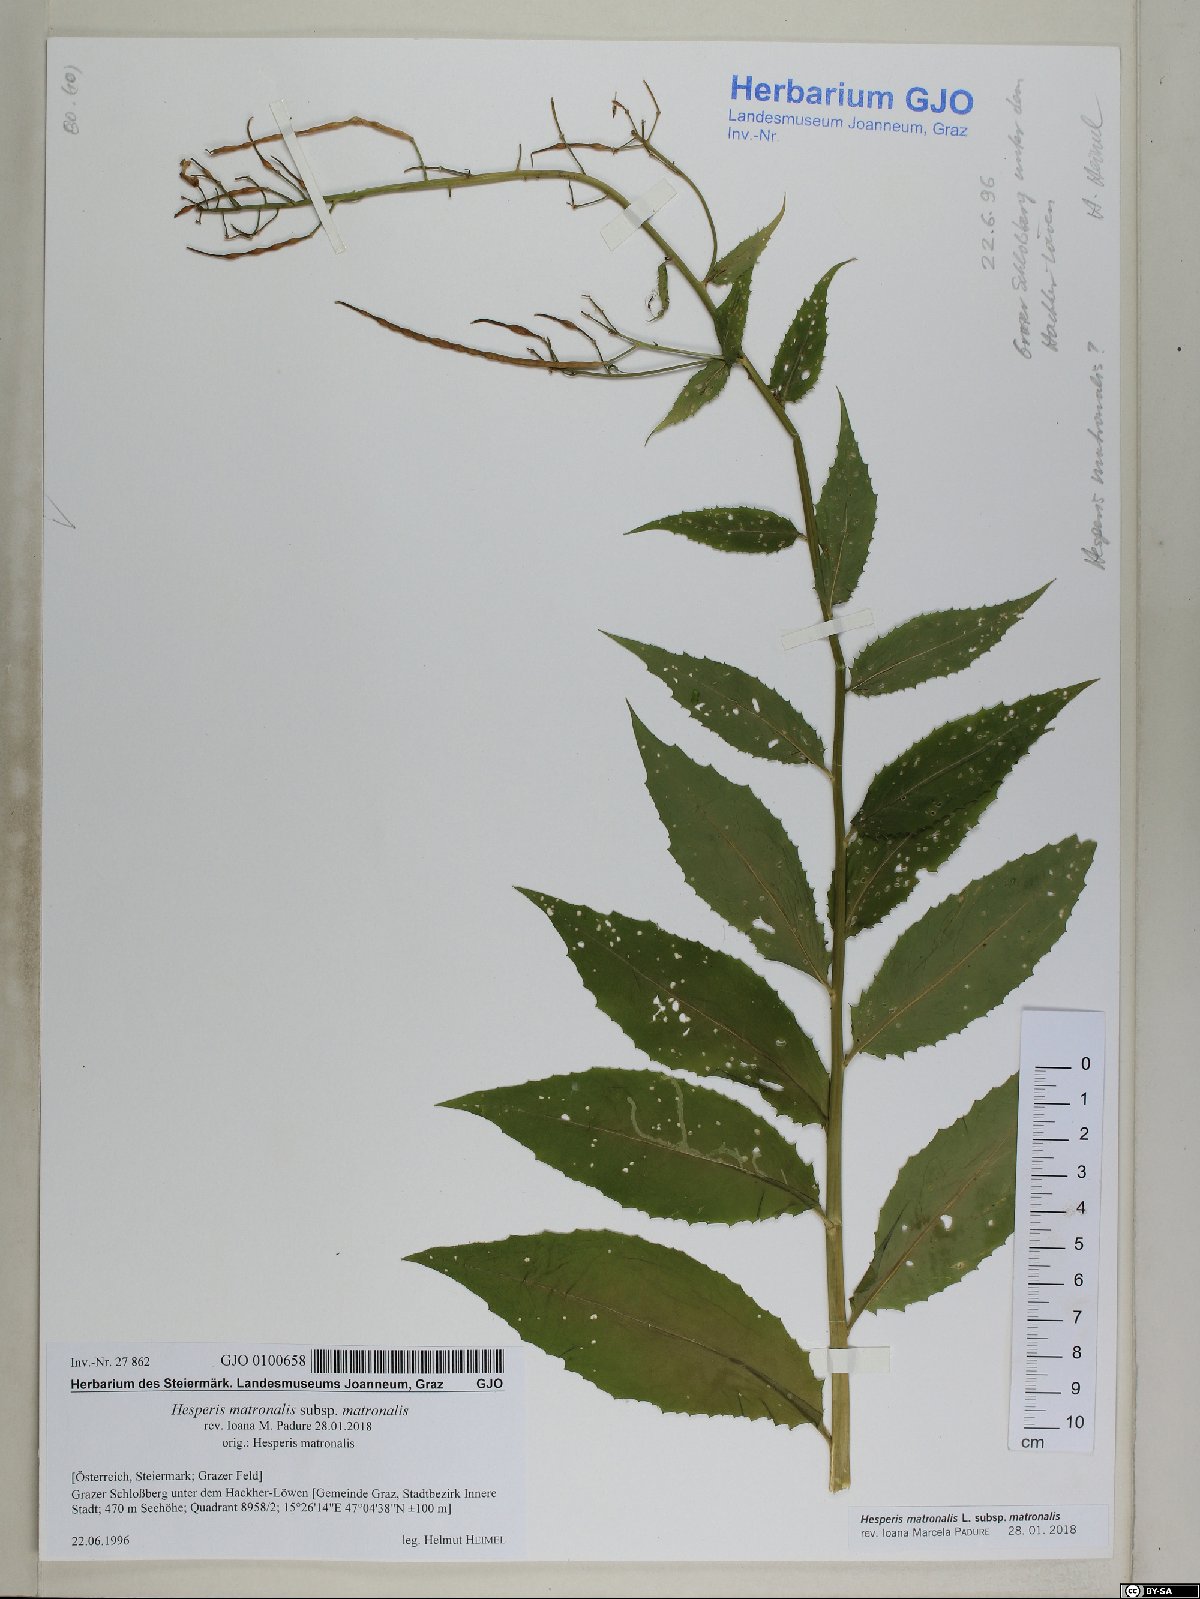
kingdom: Plantae
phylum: Tracheophyta
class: Magnoliopsida
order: Brassicales
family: Brassicaceae
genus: Hesperis
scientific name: Hesperis matronalis
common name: Dame's-violet
